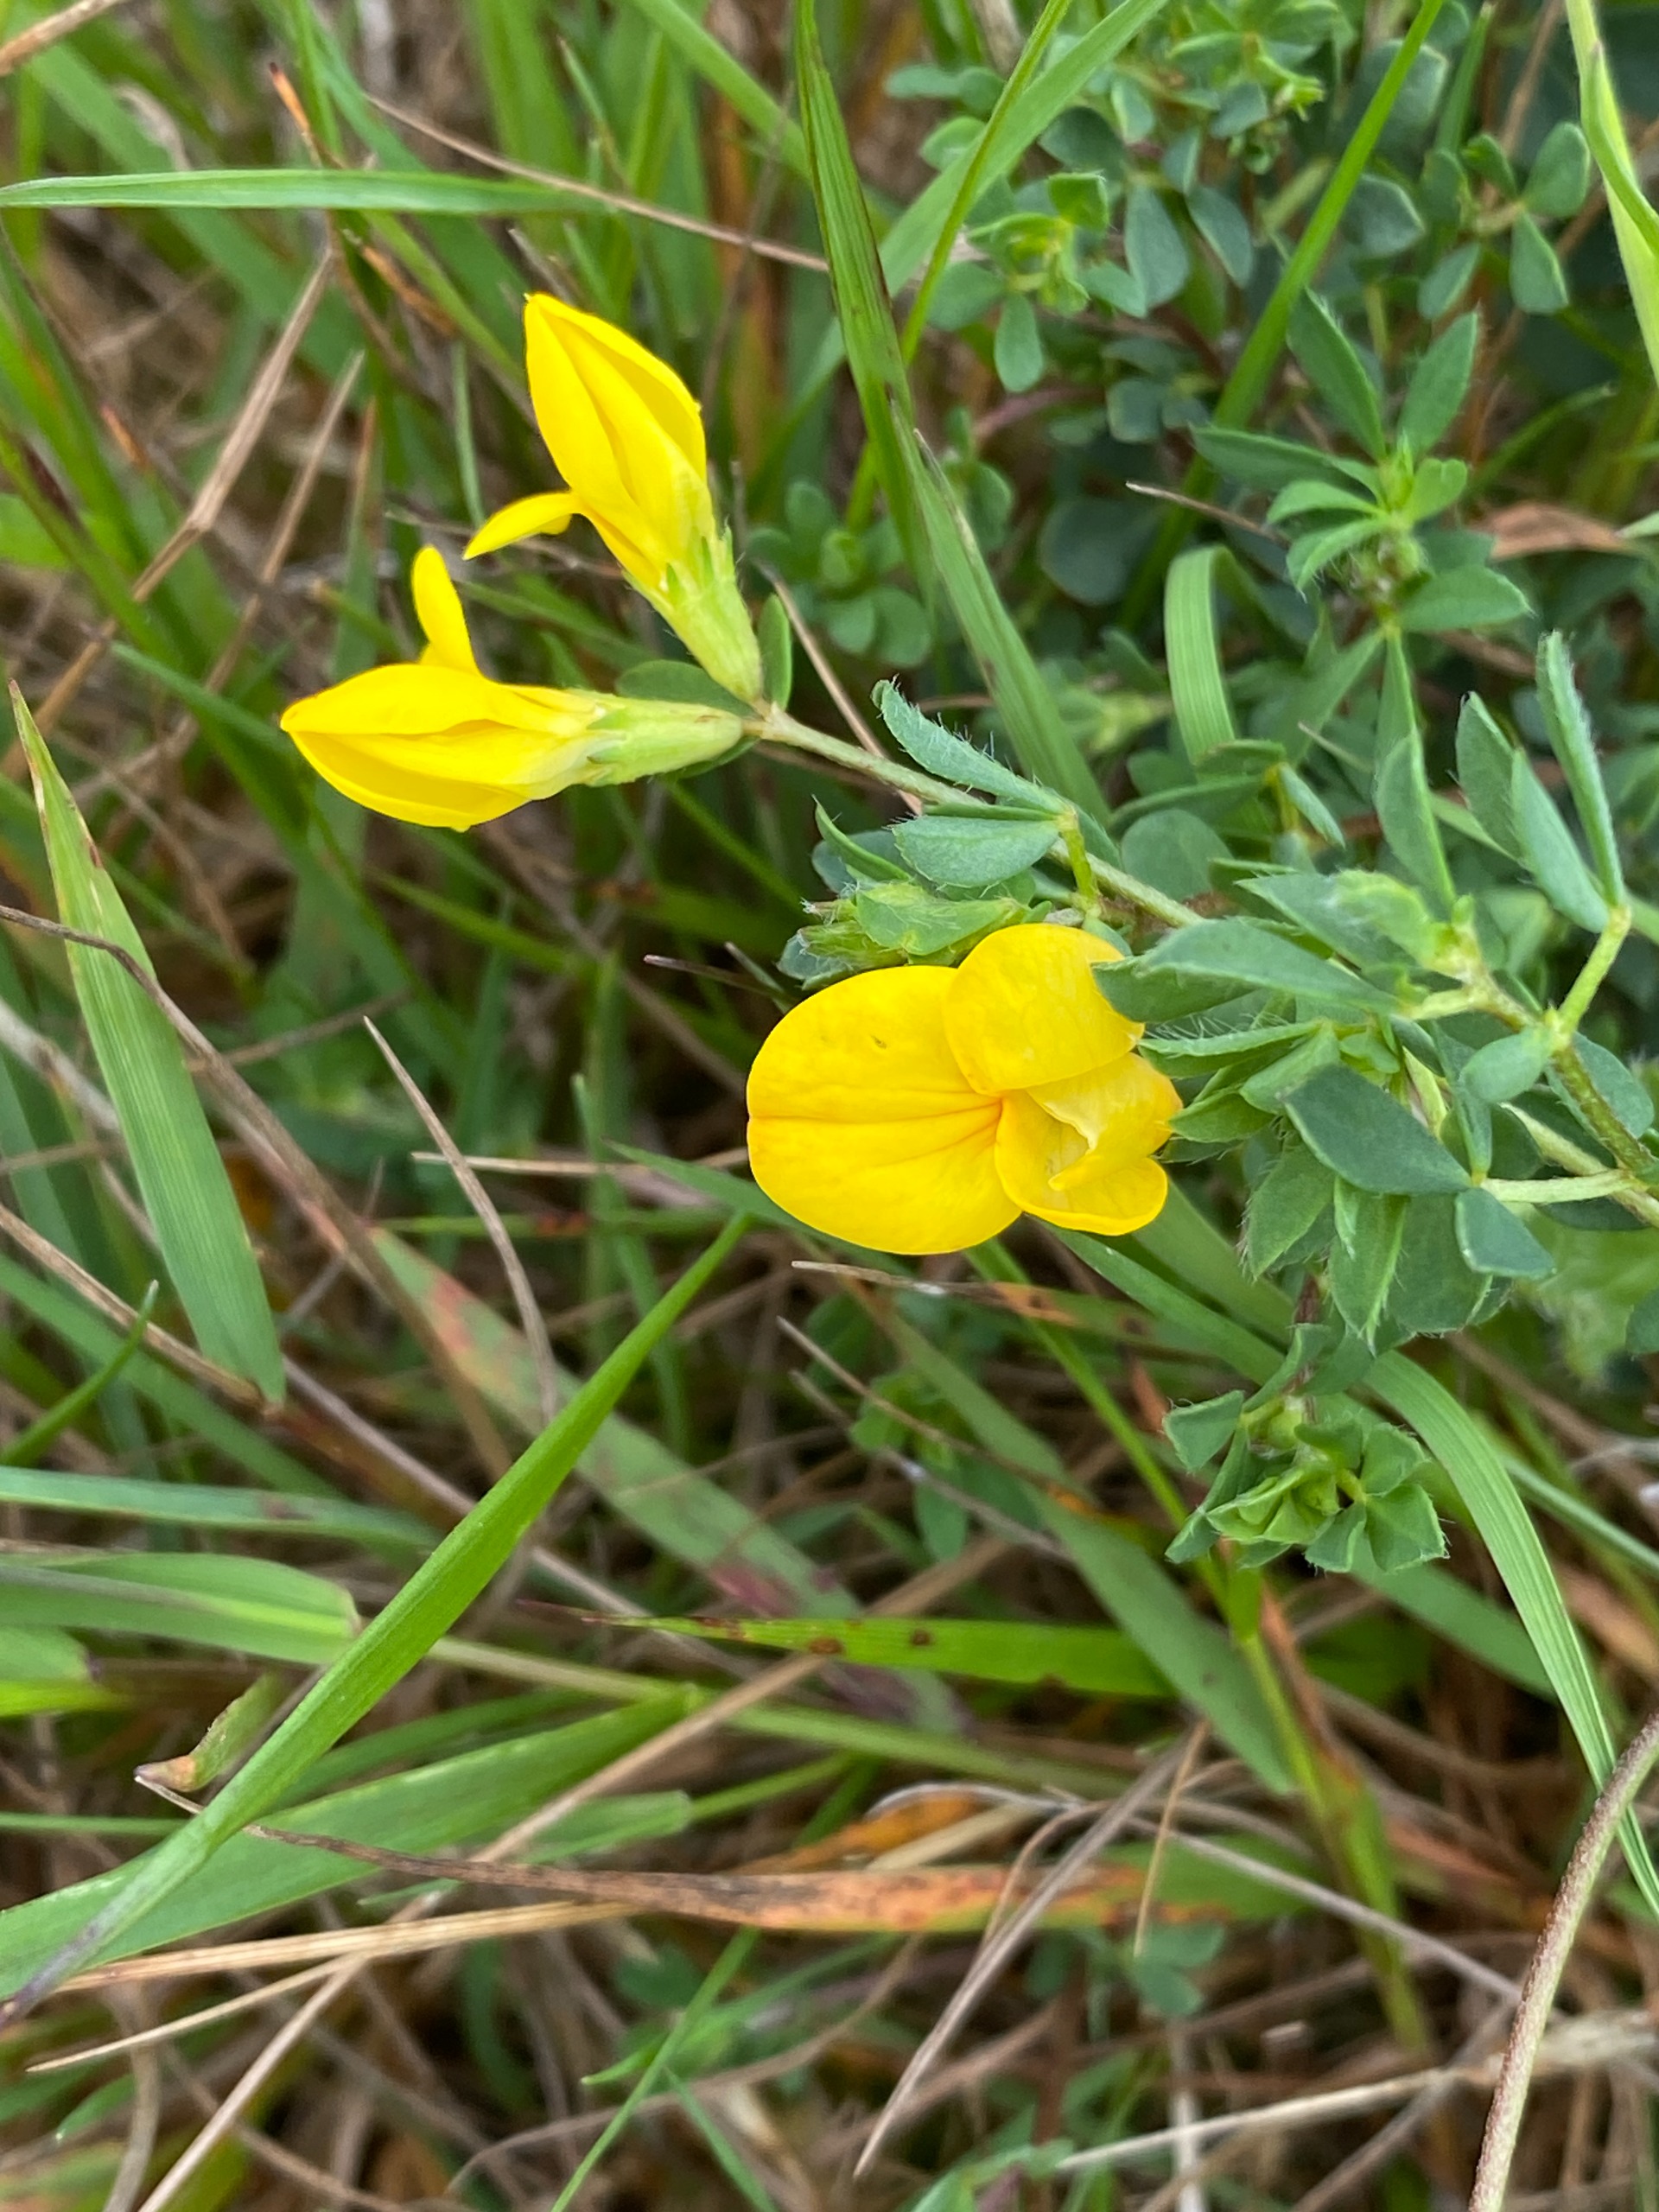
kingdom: Plantae
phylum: Tracheophyta
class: Magnoliopsida
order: Fabales
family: Fabaceae
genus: Lotus
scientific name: Lotus corniculatus
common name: Almindelig kællingetand
